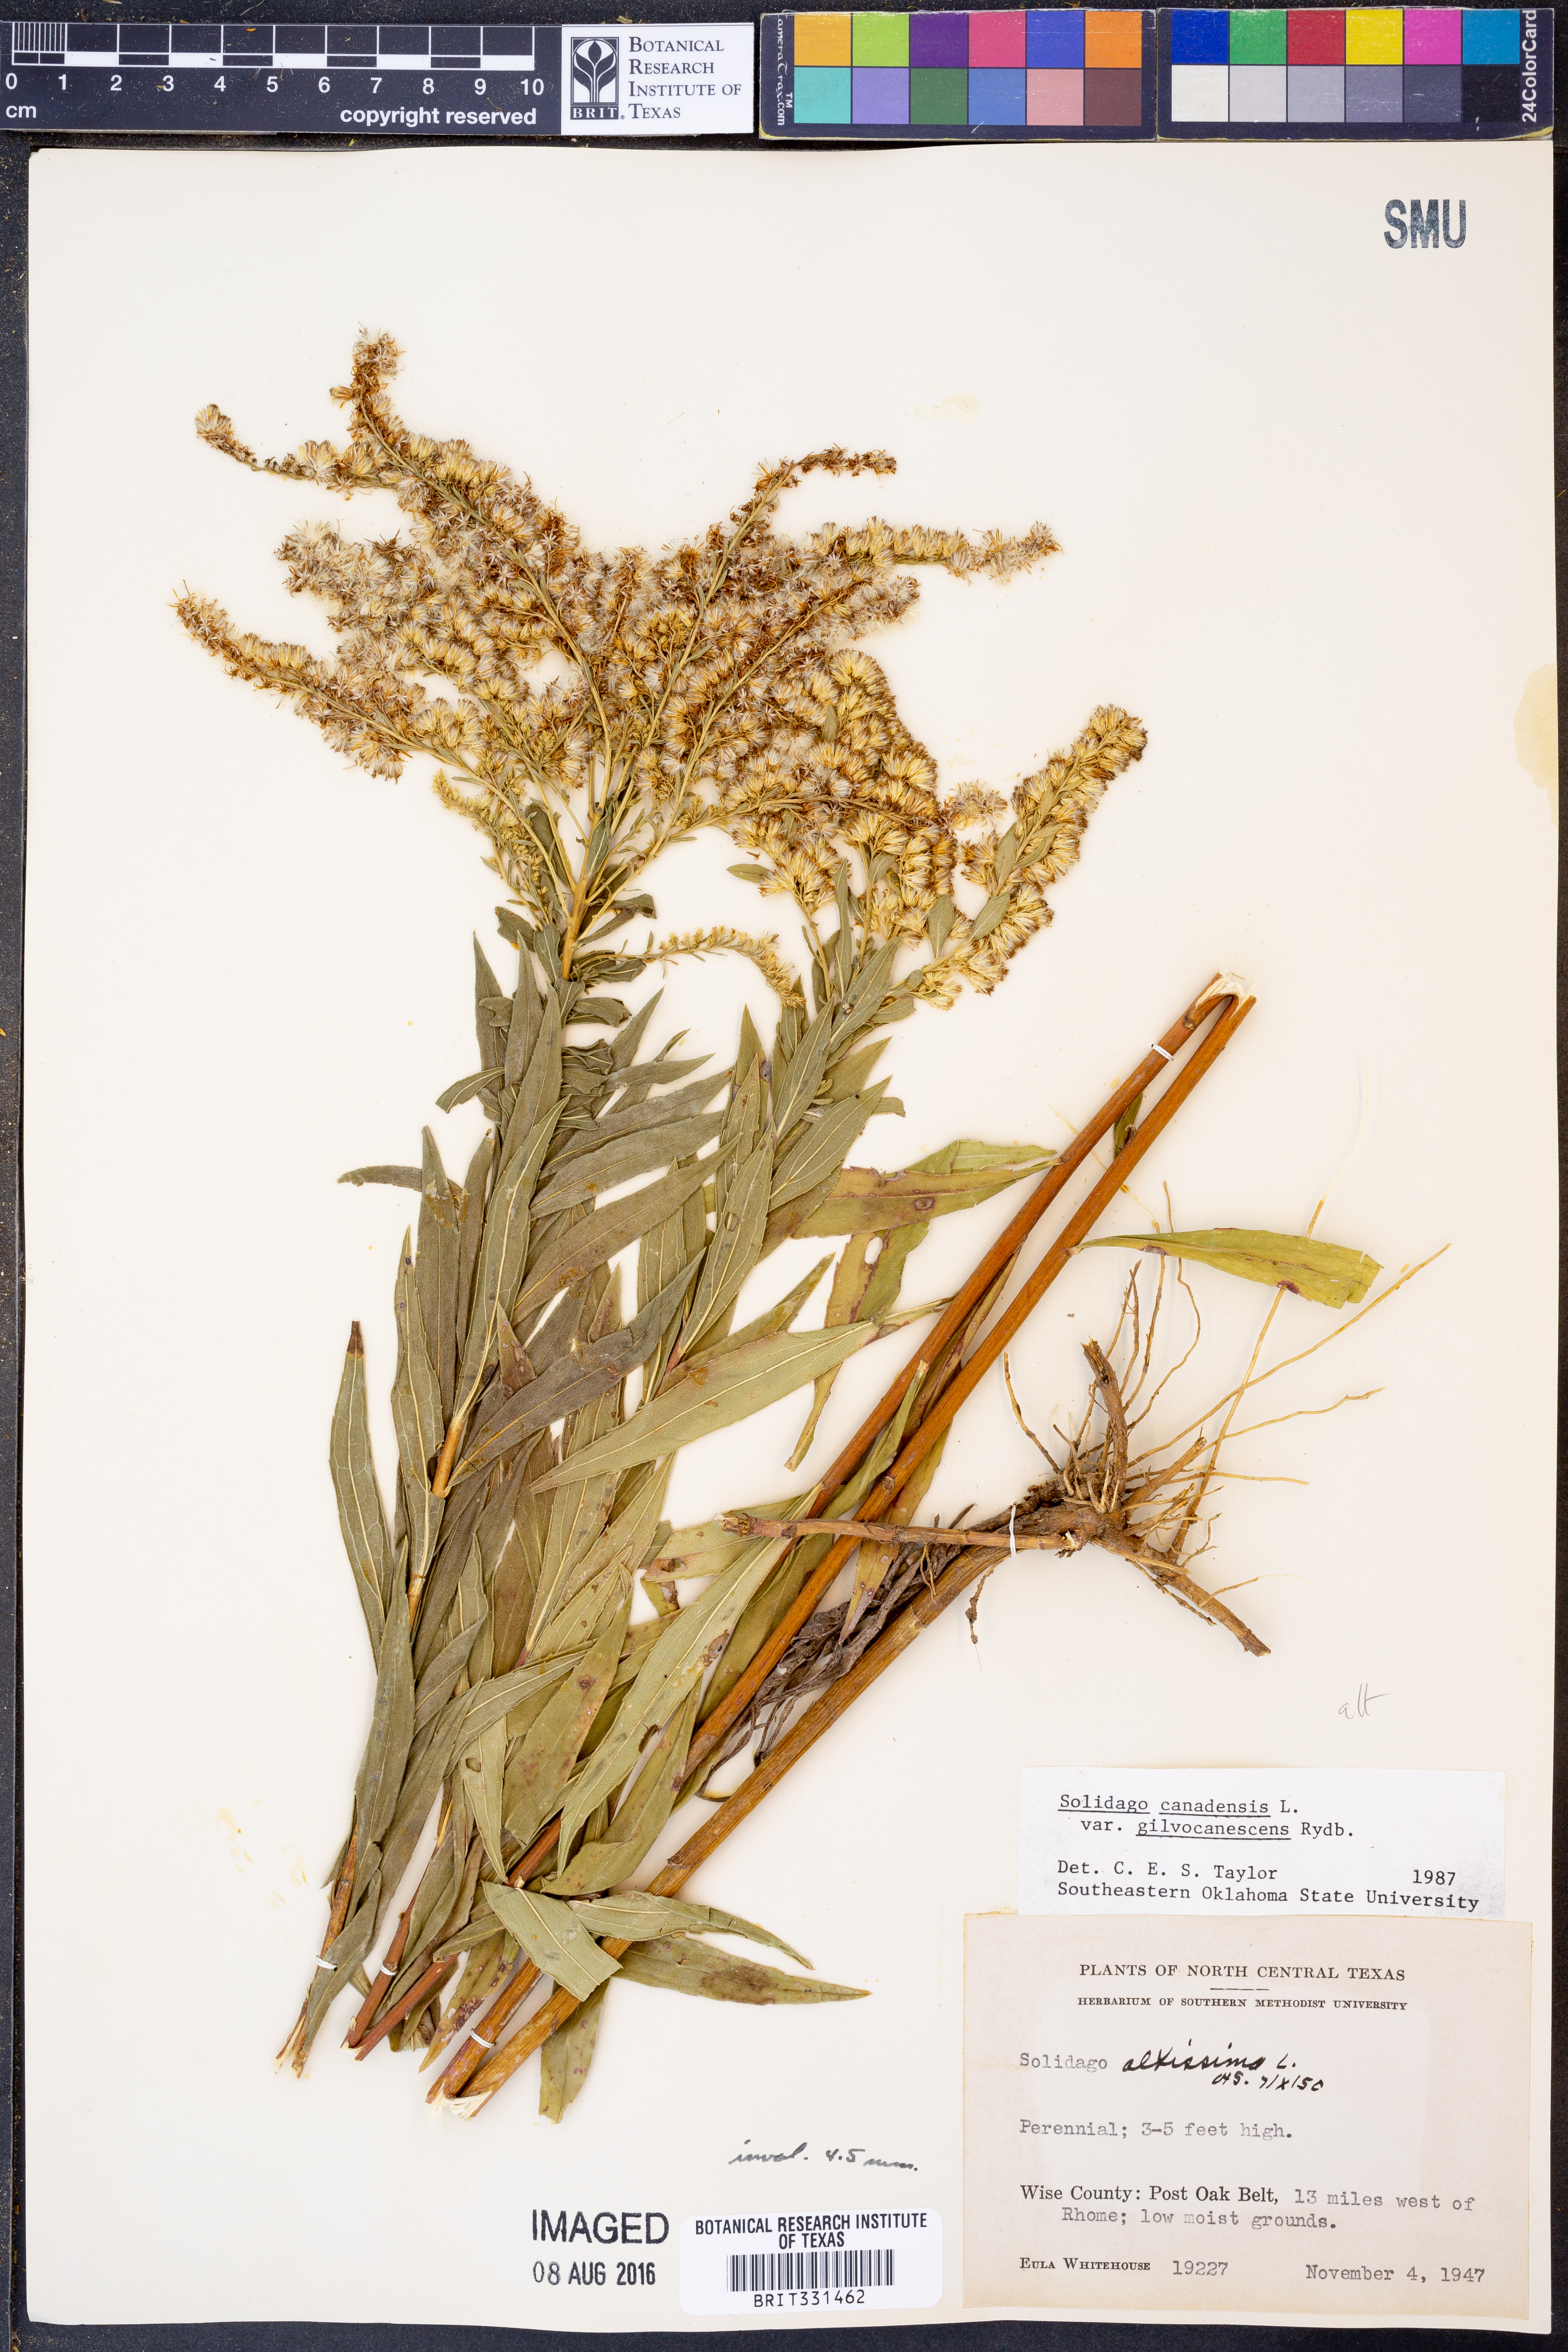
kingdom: Plantae
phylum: Tracheophyta
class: Magnoliopsida
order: Asterales
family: Asteraceae
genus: Solidago
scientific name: Solidago altissima
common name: Late goldenrod
